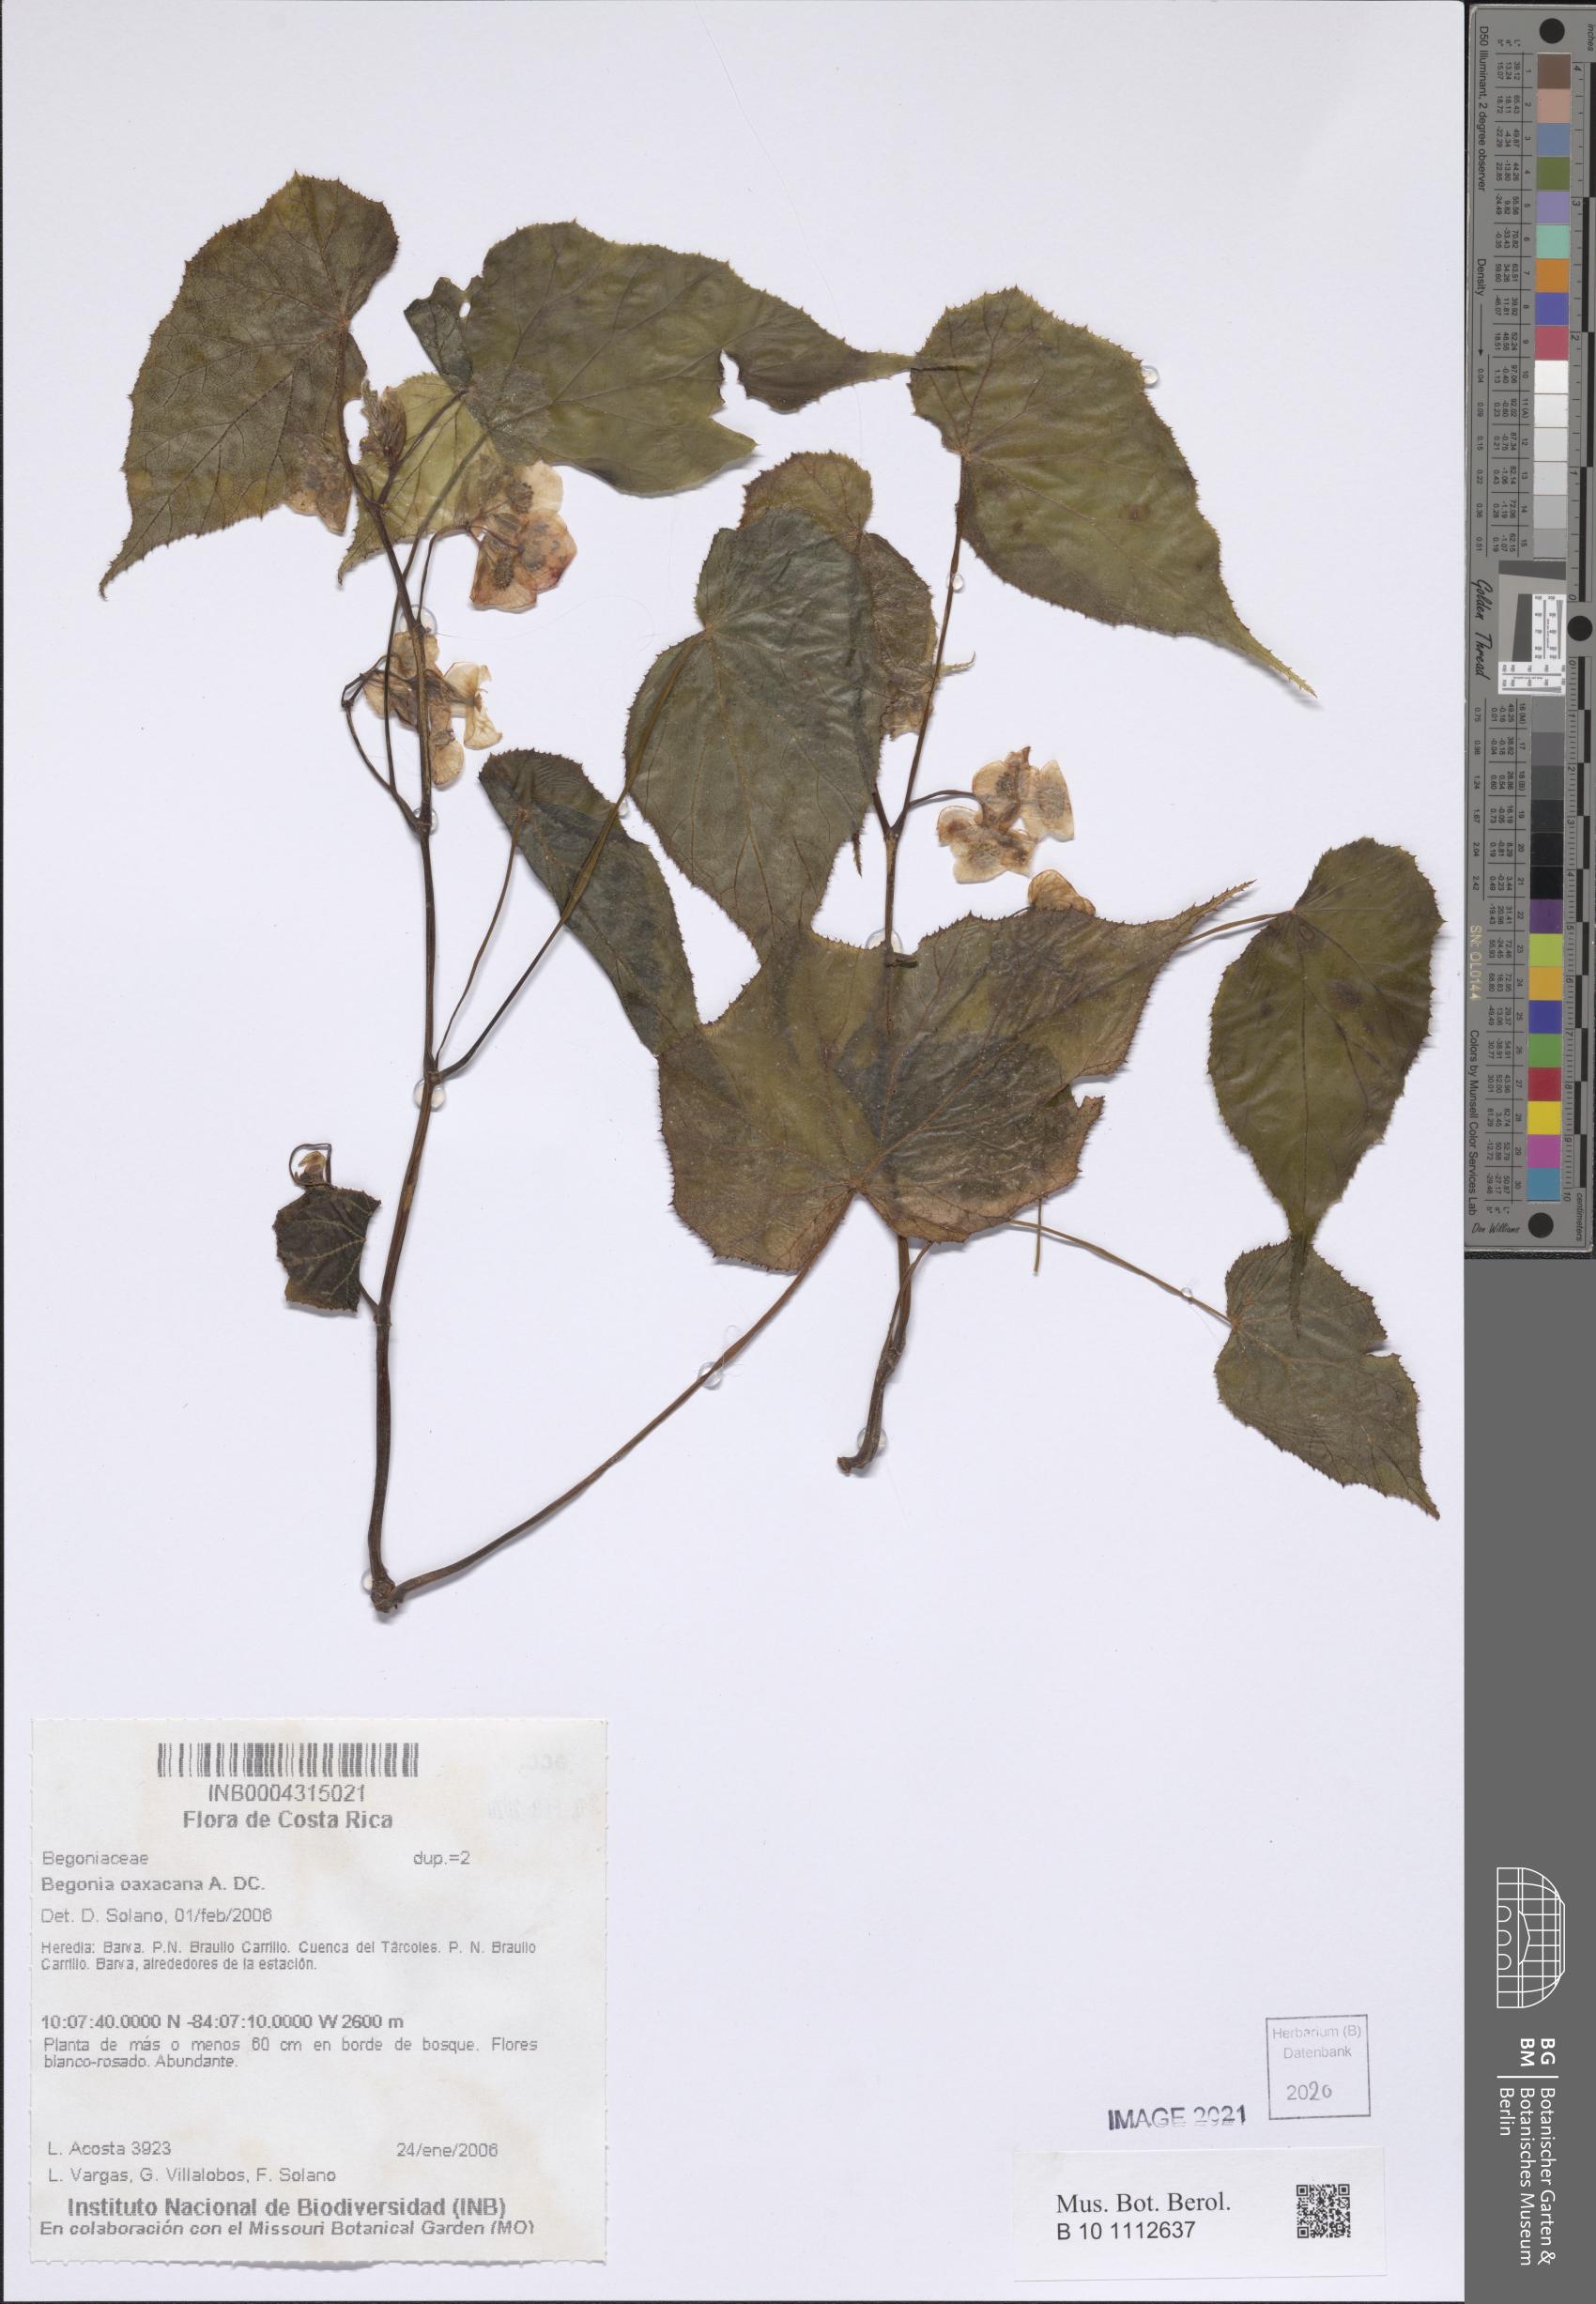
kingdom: Plantae
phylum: Tracheophyta
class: Magnoliopsida
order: Cucurbitales
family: Begoniaceae
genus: Begonia
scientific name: Begonia oaxacana
